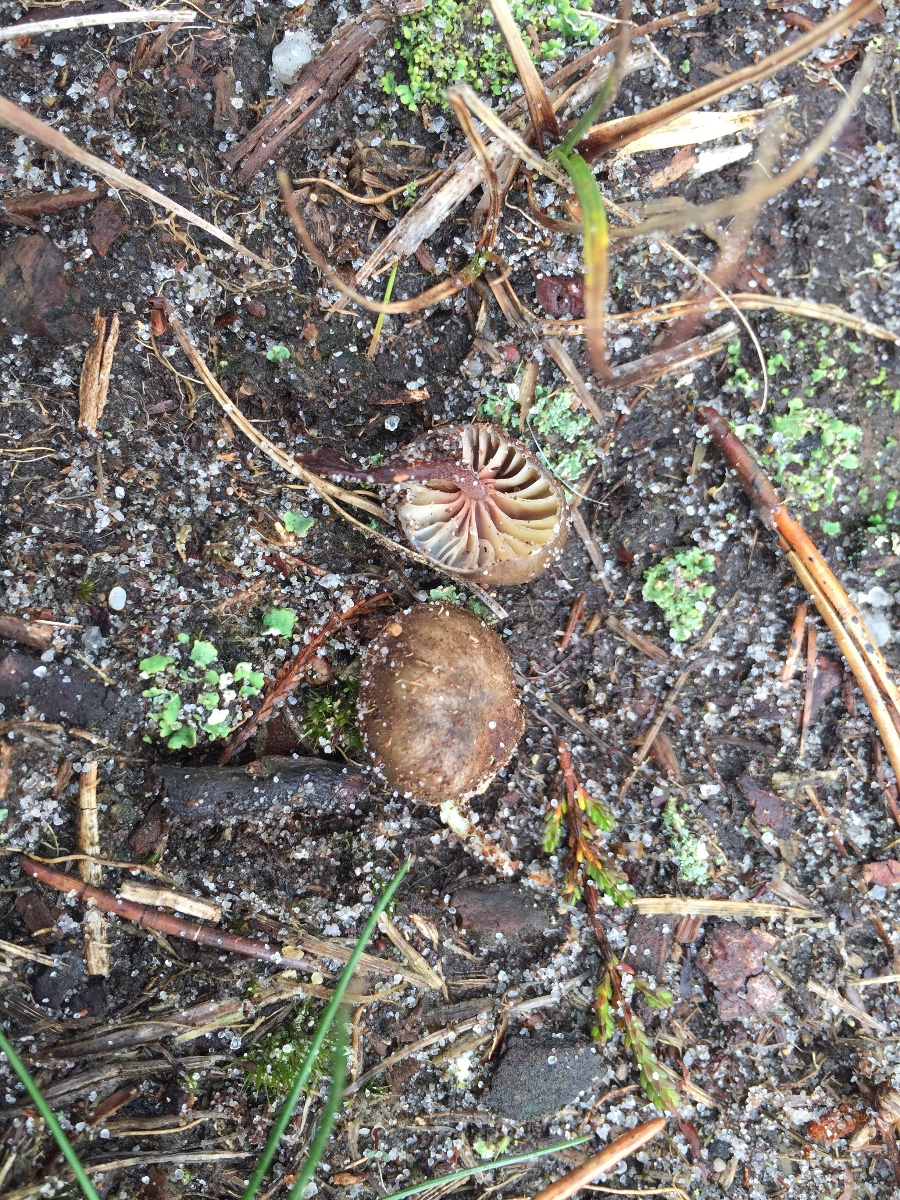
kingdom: Fungi
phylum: Basidiomycota
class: Agaricomycetes
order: Agaricales
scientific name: Agaricales
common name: champignonordenen
